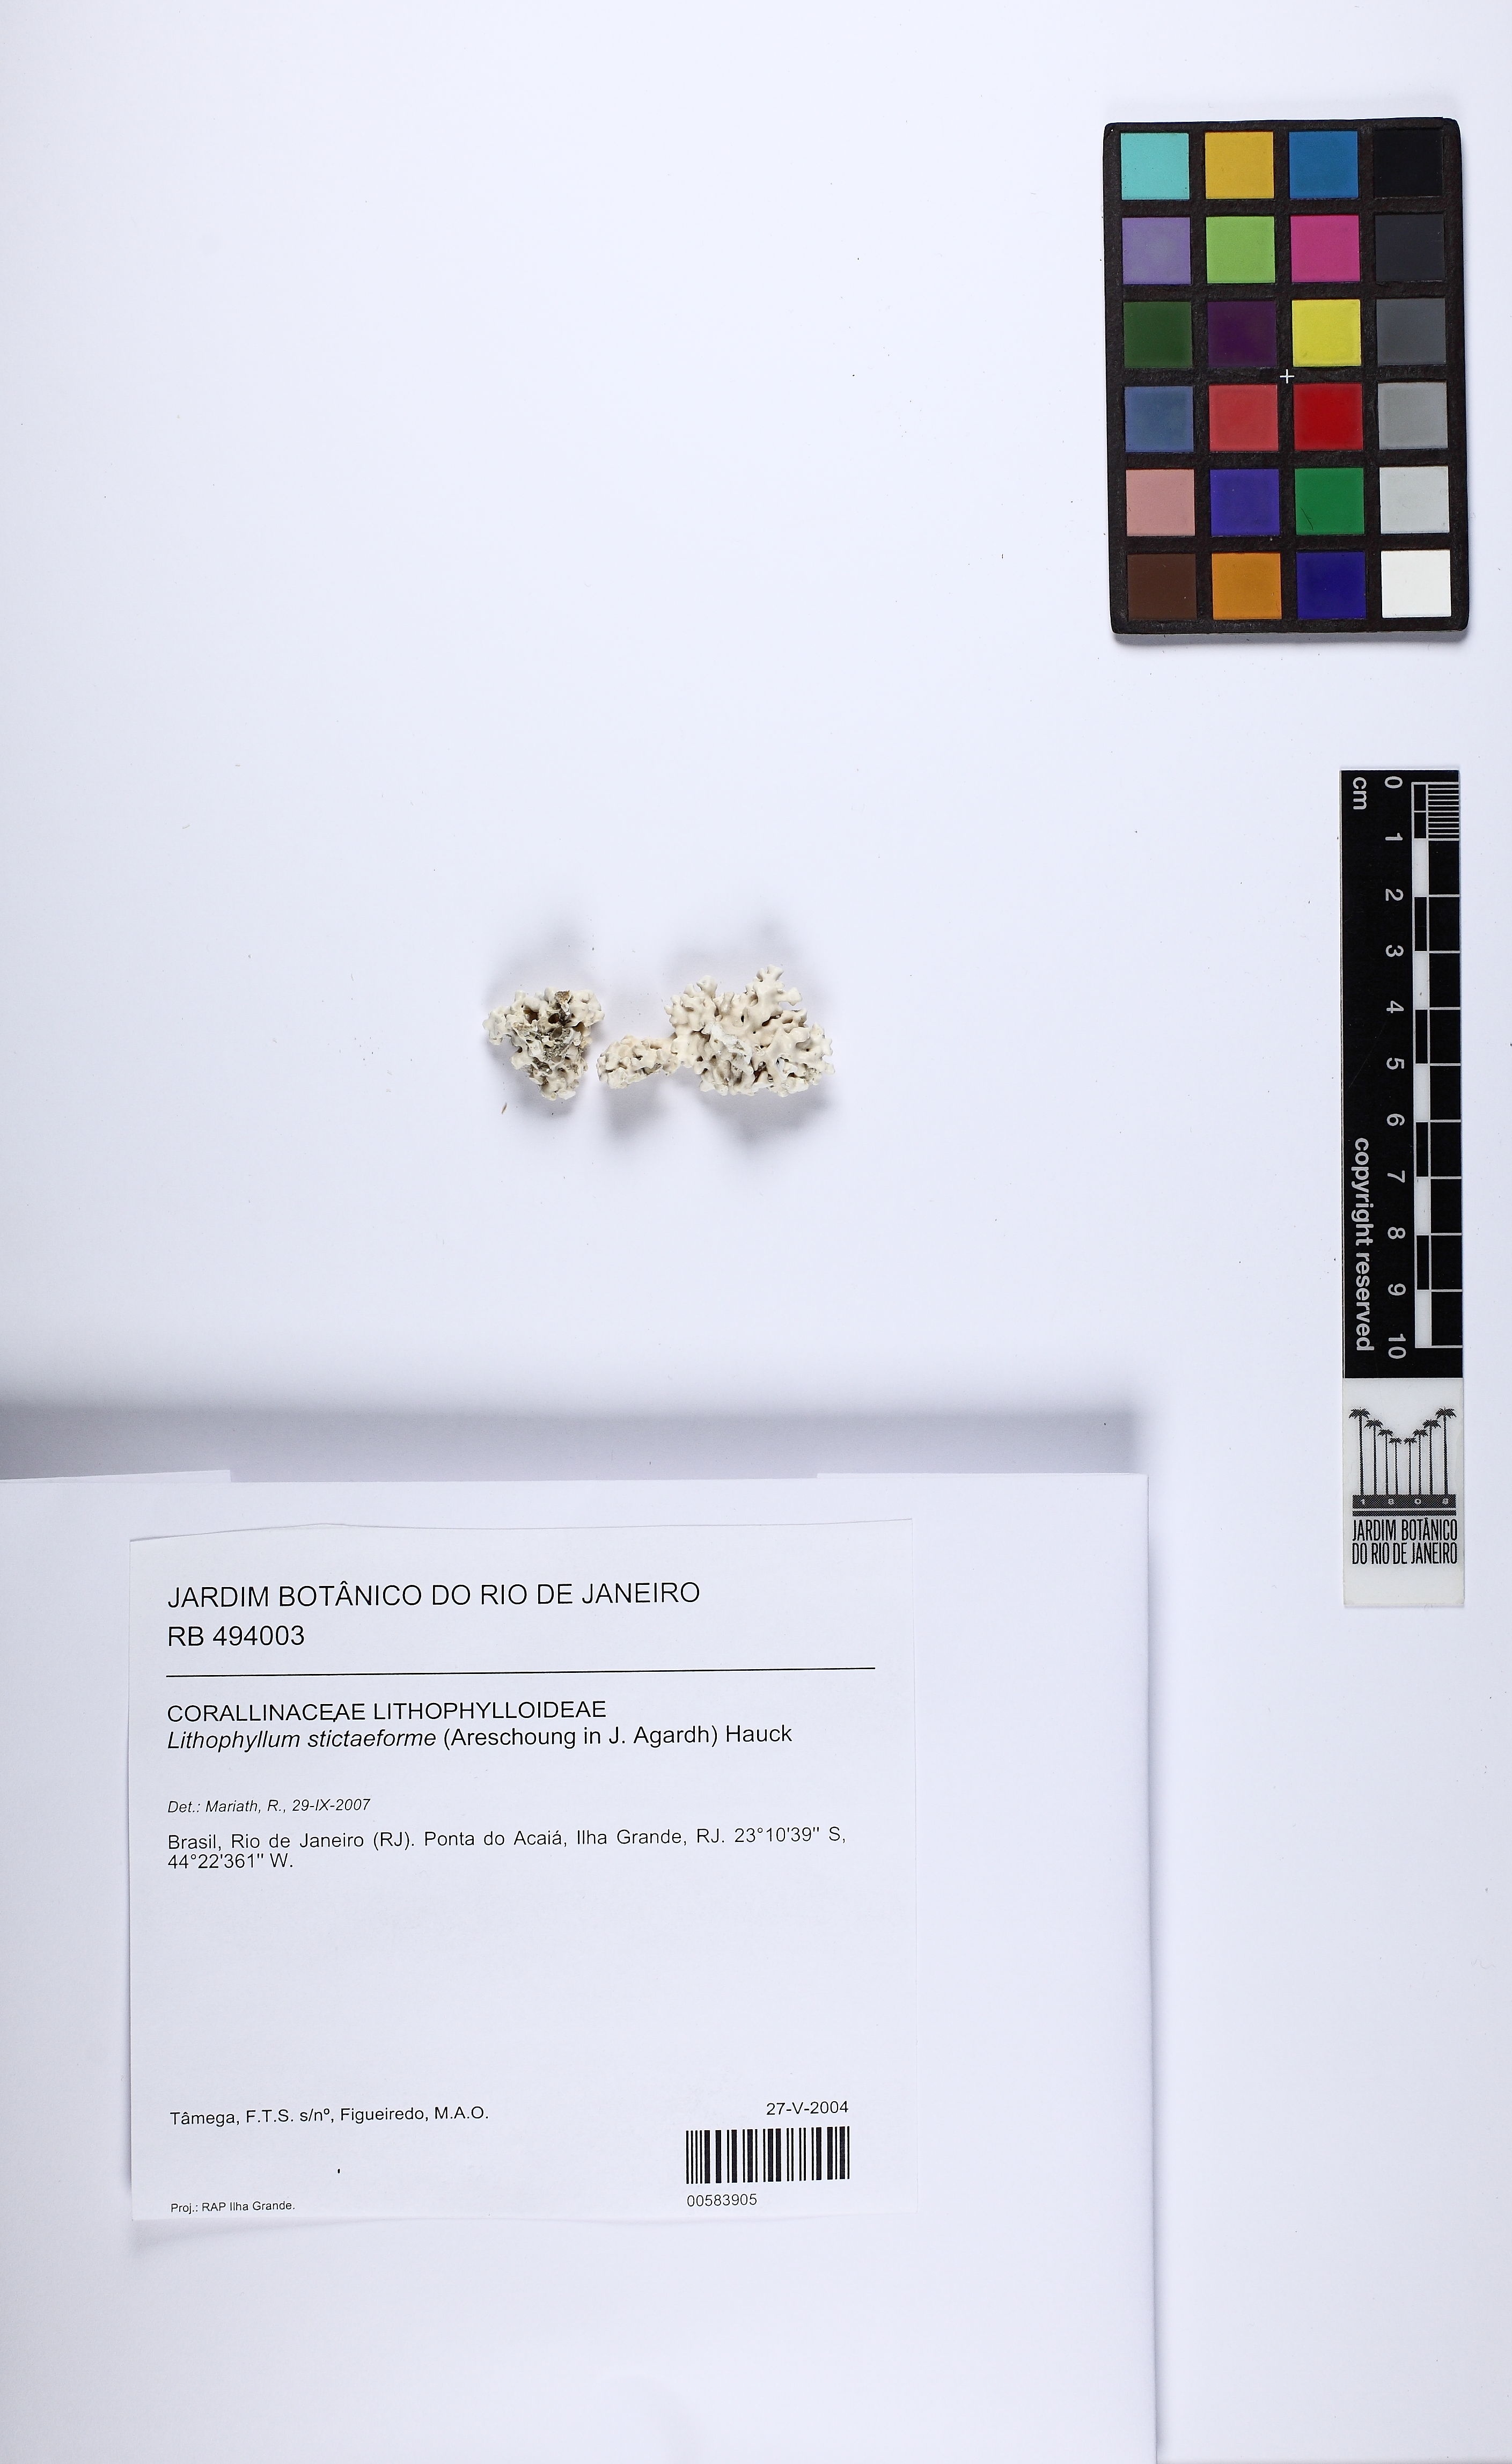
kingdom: Plantae
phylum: Rhodophyta
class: Florideophyceae
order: Corallinales
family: Lithophyllaceae
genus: Lithophyllum
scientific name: Lithophyllum stictaeforme
